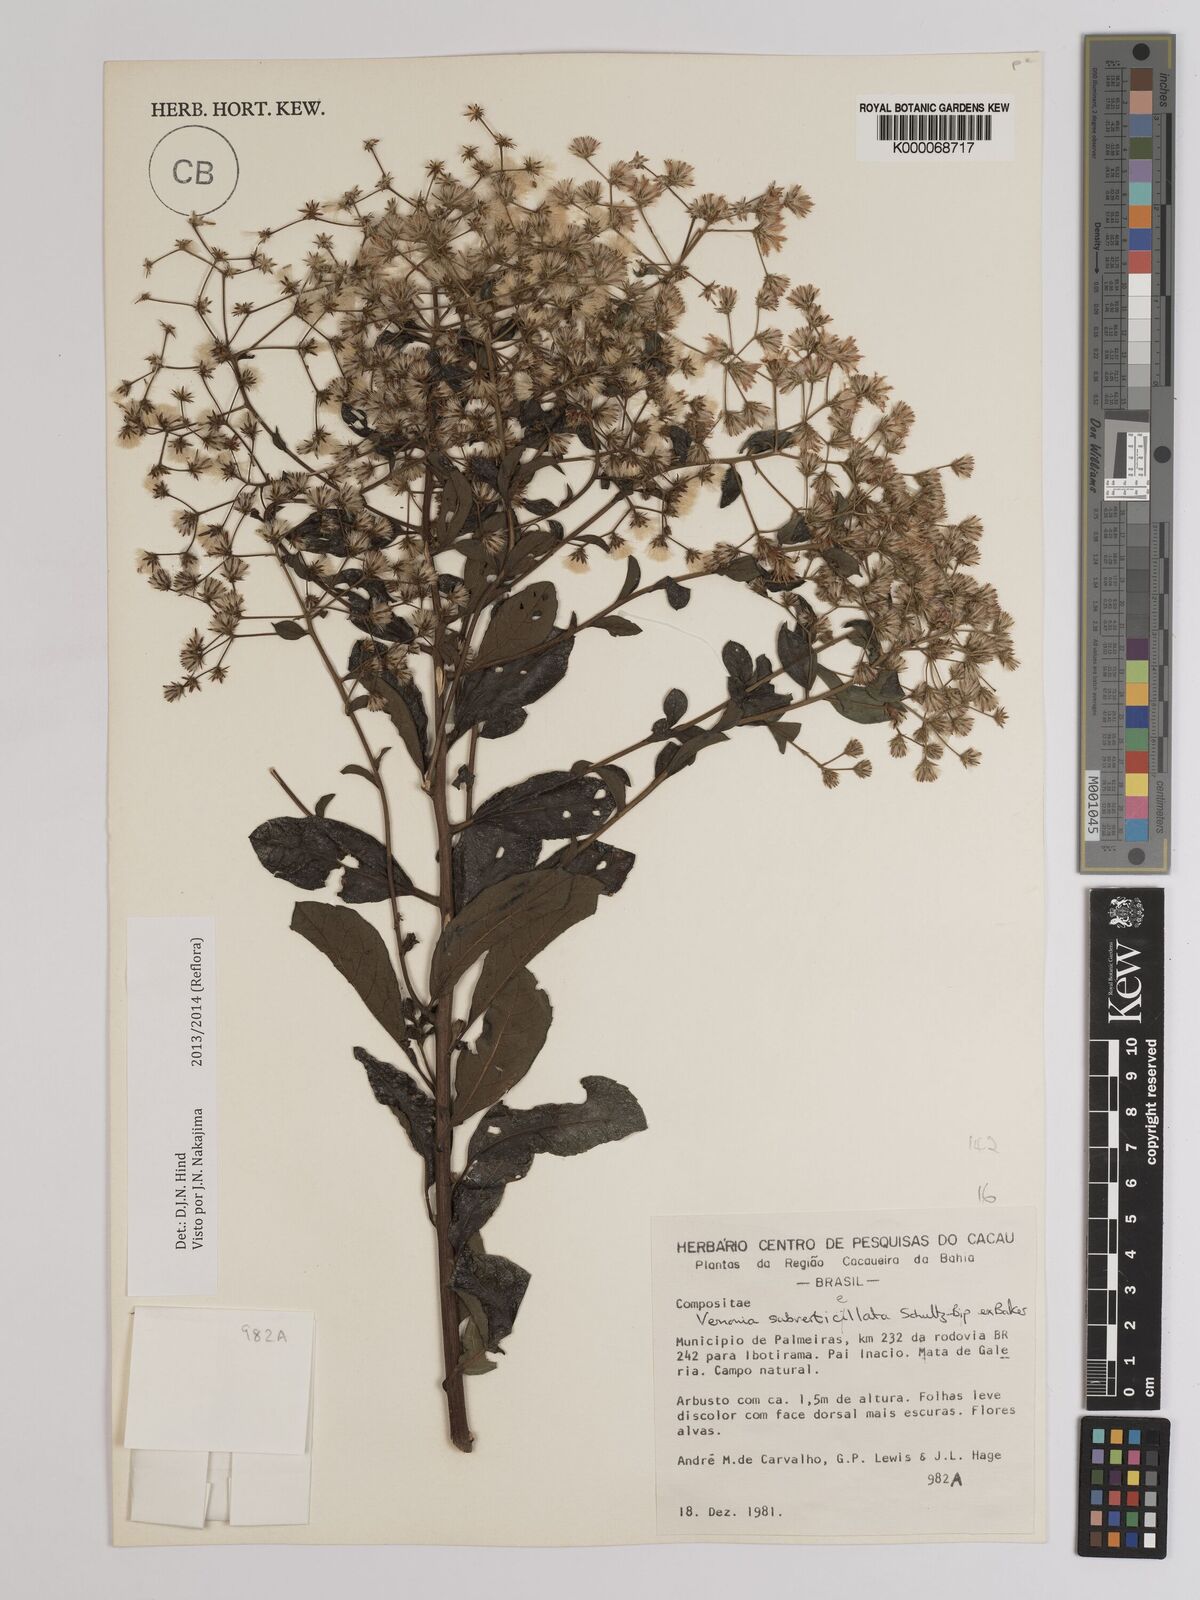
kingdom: Plantae
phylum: Tracheophyta
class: Magnoliopsida
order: Asterales
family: Asteraceae
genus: Vernonia
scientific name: Vernonia
